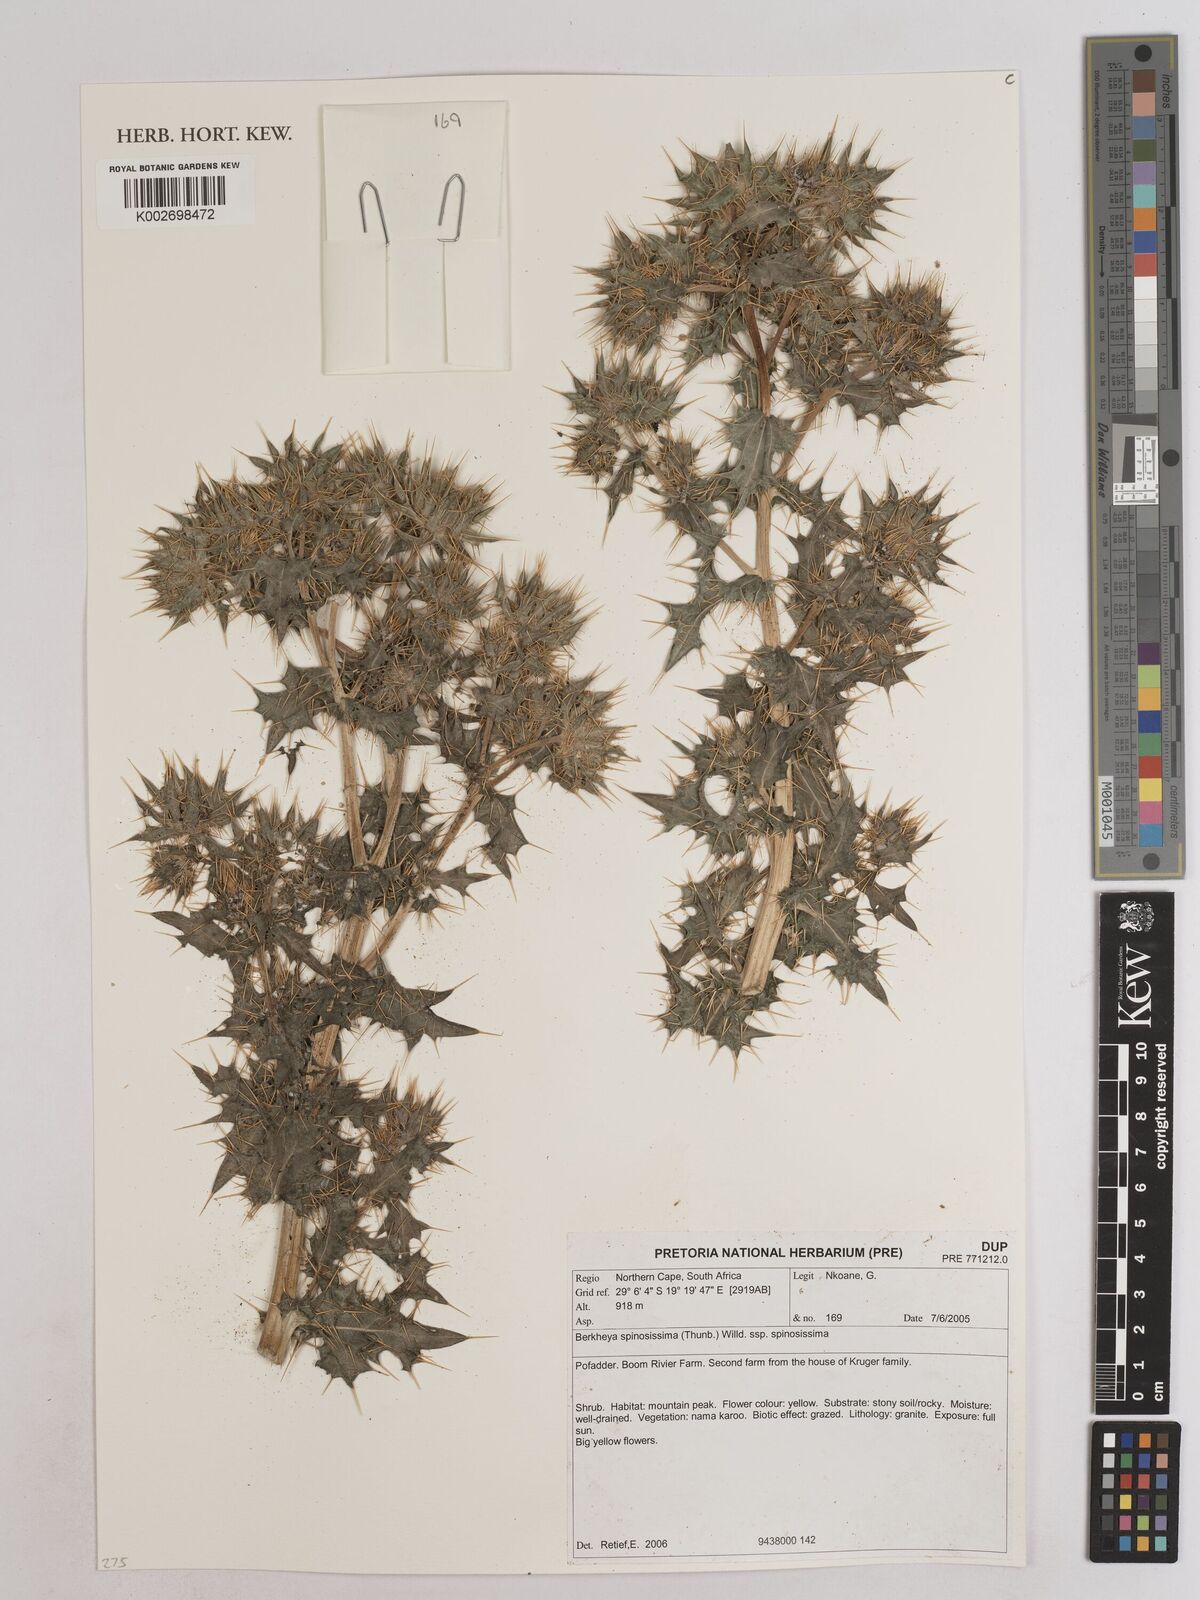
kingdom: Plantae
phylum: Tracheophyta
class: Magnoliopsida
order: Asterales
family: Asteraceae
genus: Berkheya
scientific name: Berkheya spinosissima
